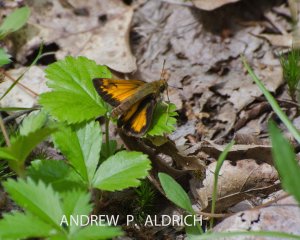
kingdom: Animalia
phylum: Arthropoda
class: Insecta
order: Lepidoptera
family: Hesperiidae
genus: Lon
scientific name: Lon hobomok
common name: Hobomok Skipper
